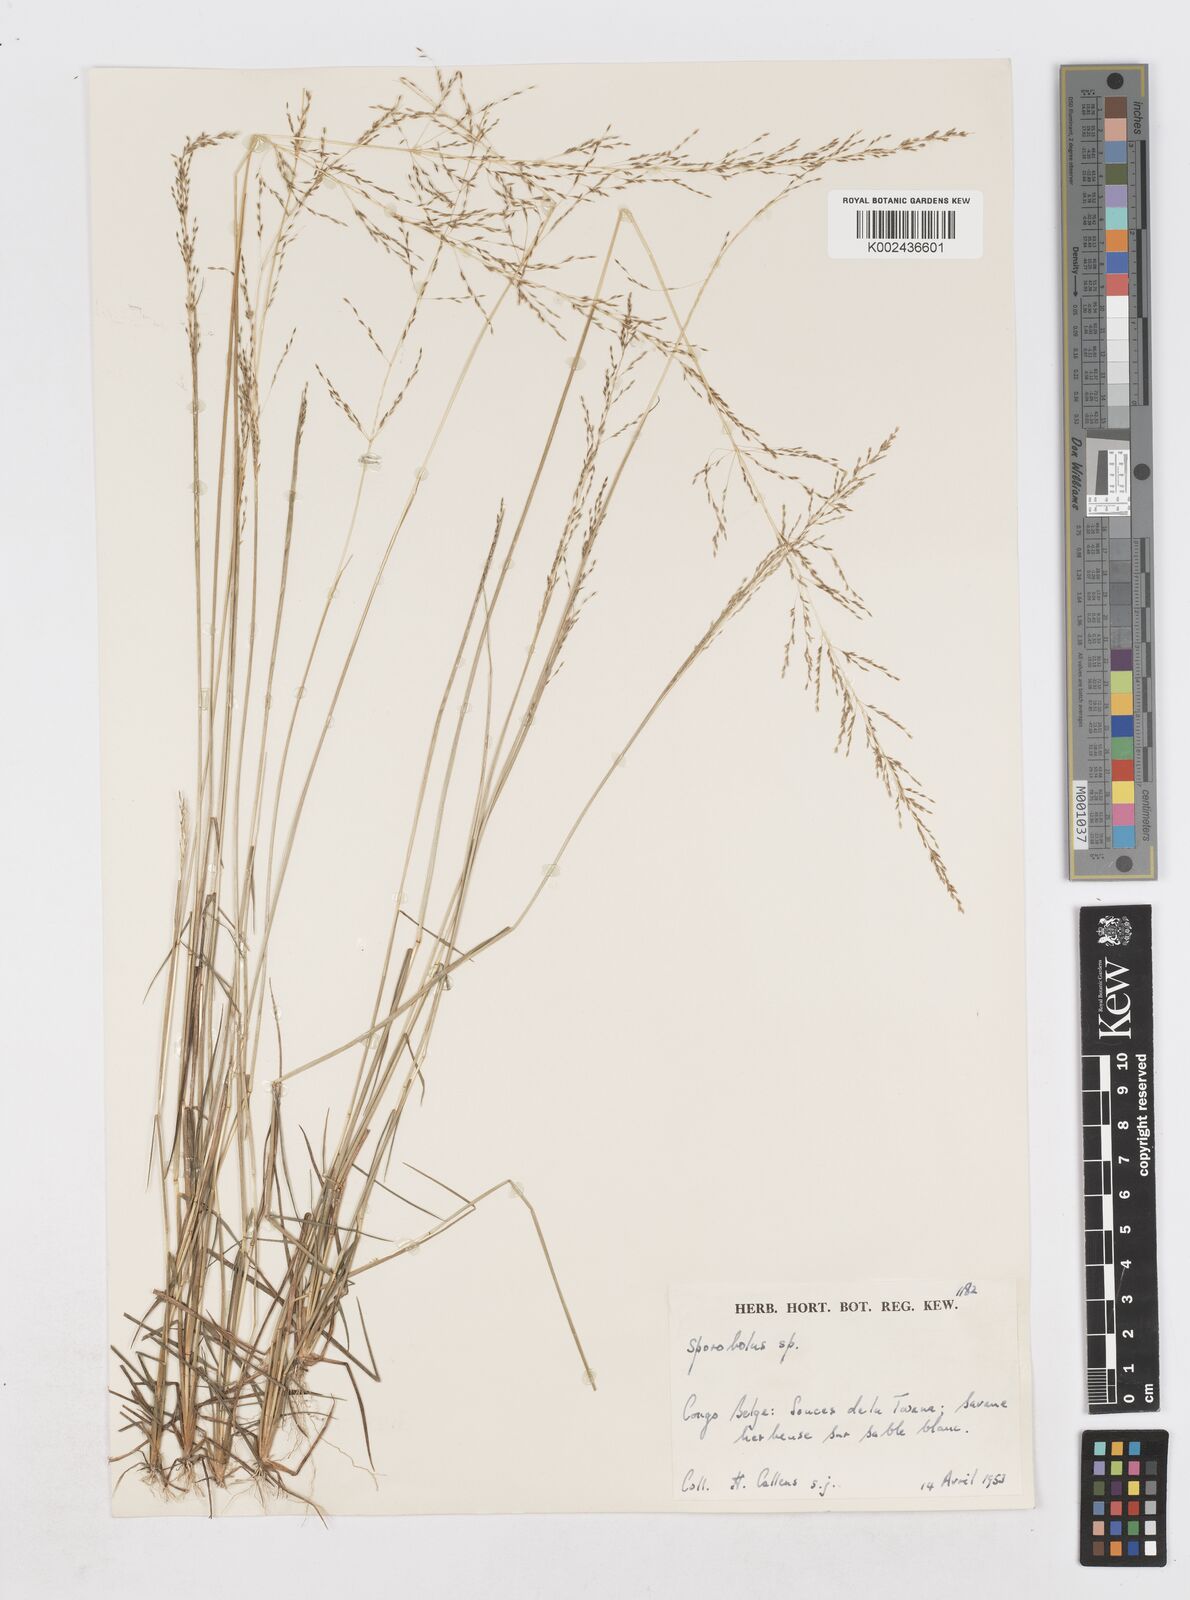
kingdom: Plantae
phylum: Tracheophyta
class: Liliopsida
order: Poales
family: Poaceae
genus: Sporobolus
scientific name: Sporobolus paniculatus
